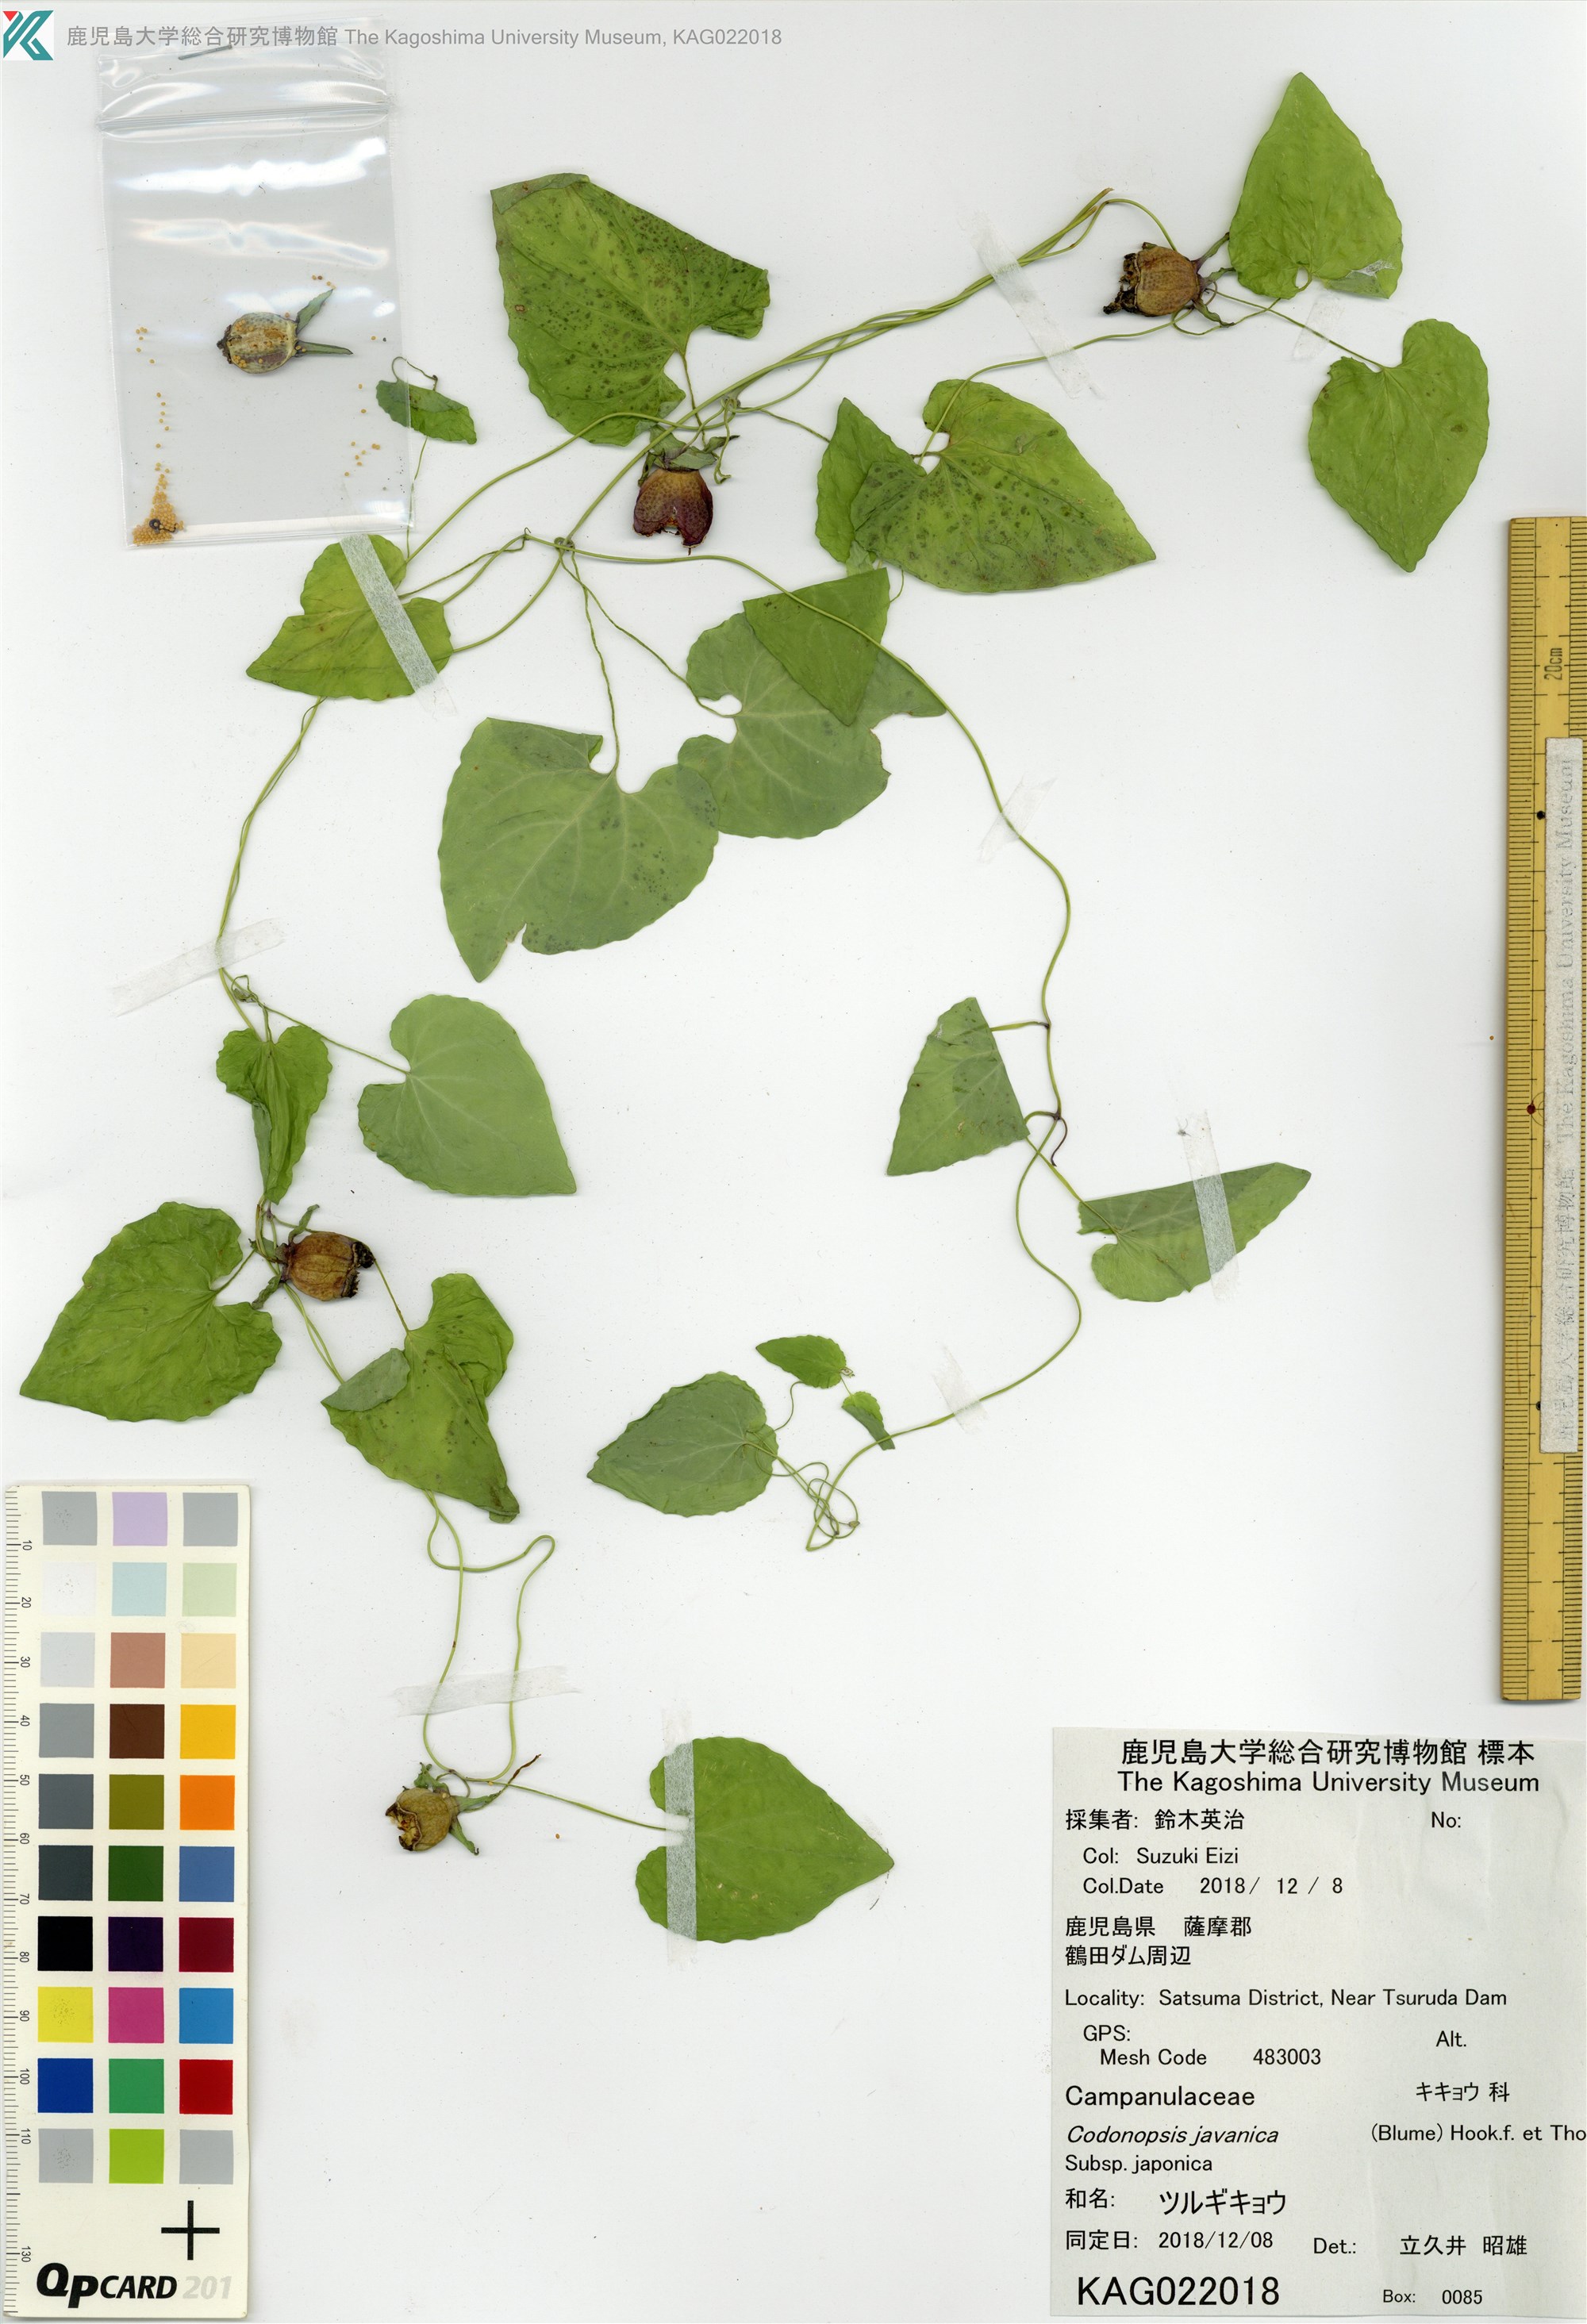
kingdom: Plantae
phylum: Tracheophyta
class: Magnoliopsida
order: Asterales
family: Campanulaceae
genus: Codonopsis
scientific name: Codonopsis javanica
